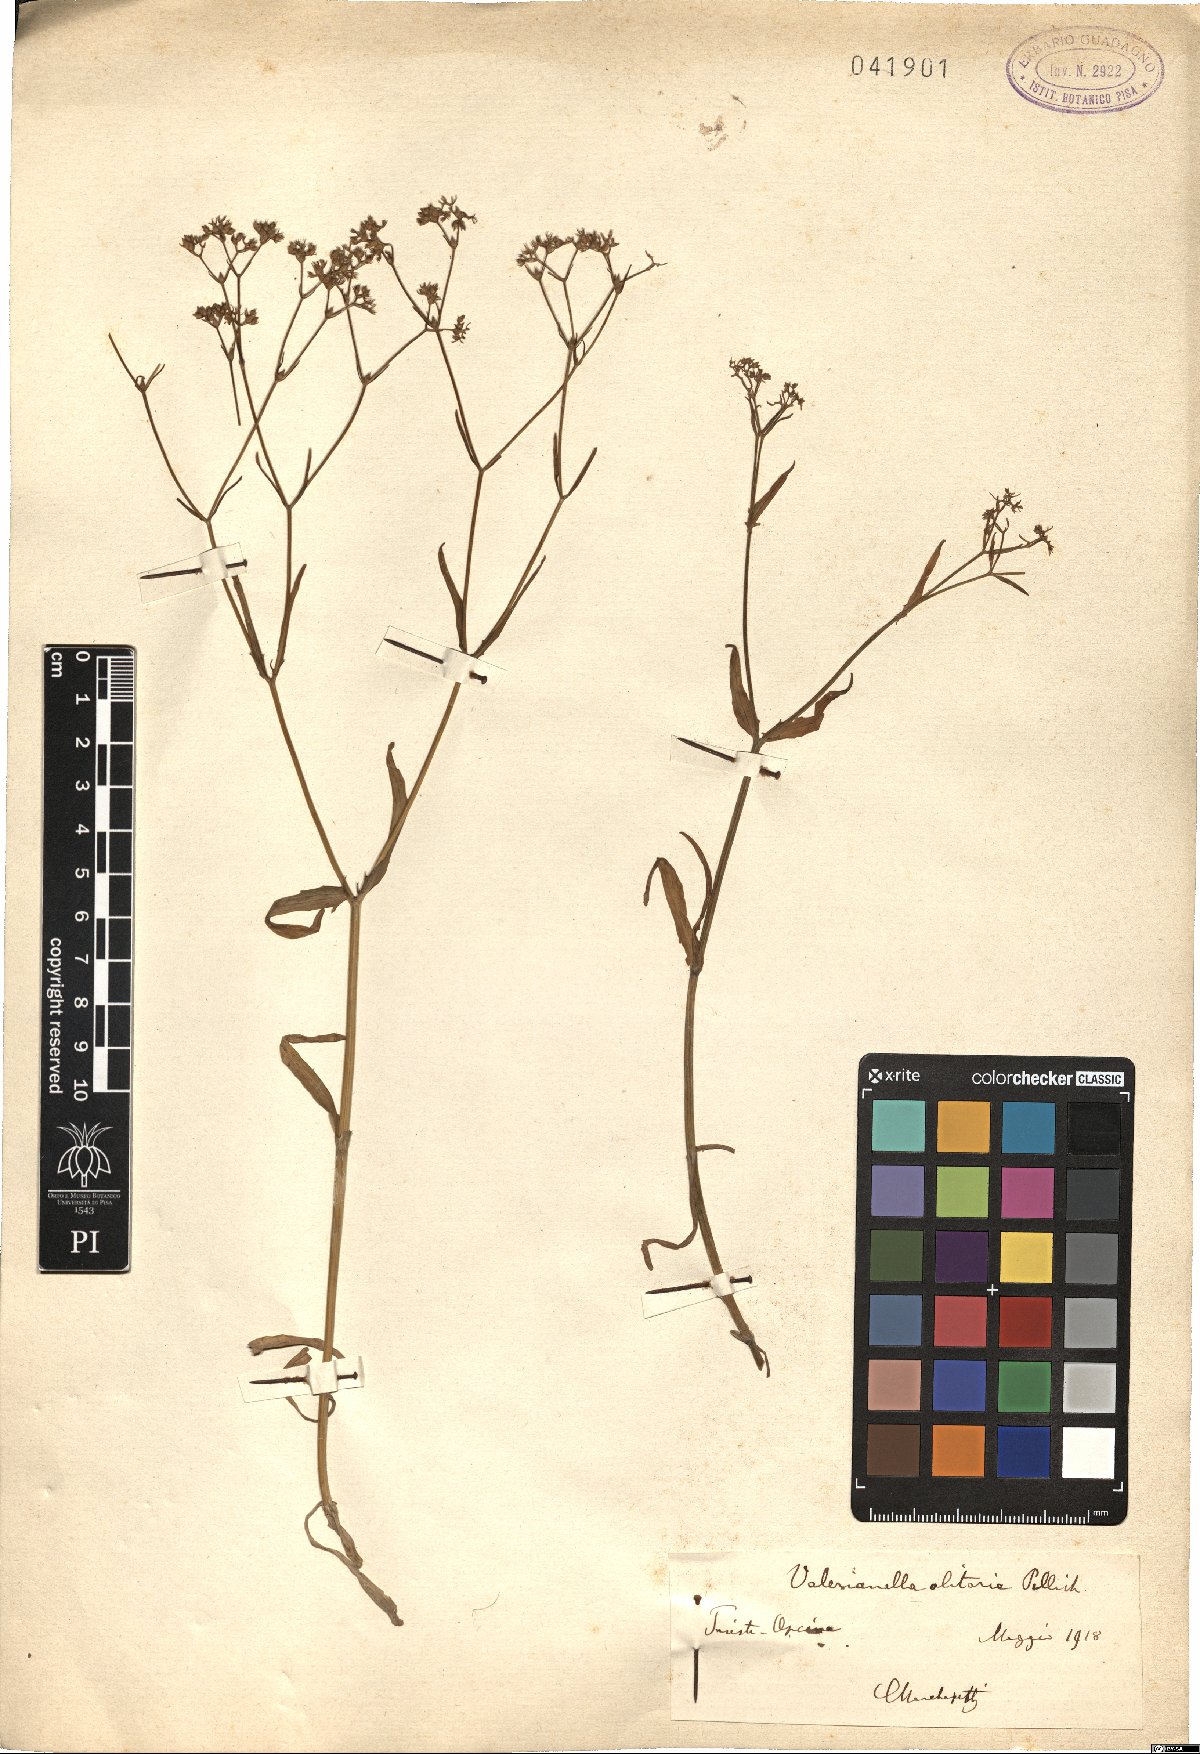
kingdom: Plantae
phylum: Tracheophyta
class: Magnoliopsida
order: Dipsacales
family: Caprifoliaceae
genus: Valerianella
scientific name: Valerianella locusta
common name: Common cornsalad
